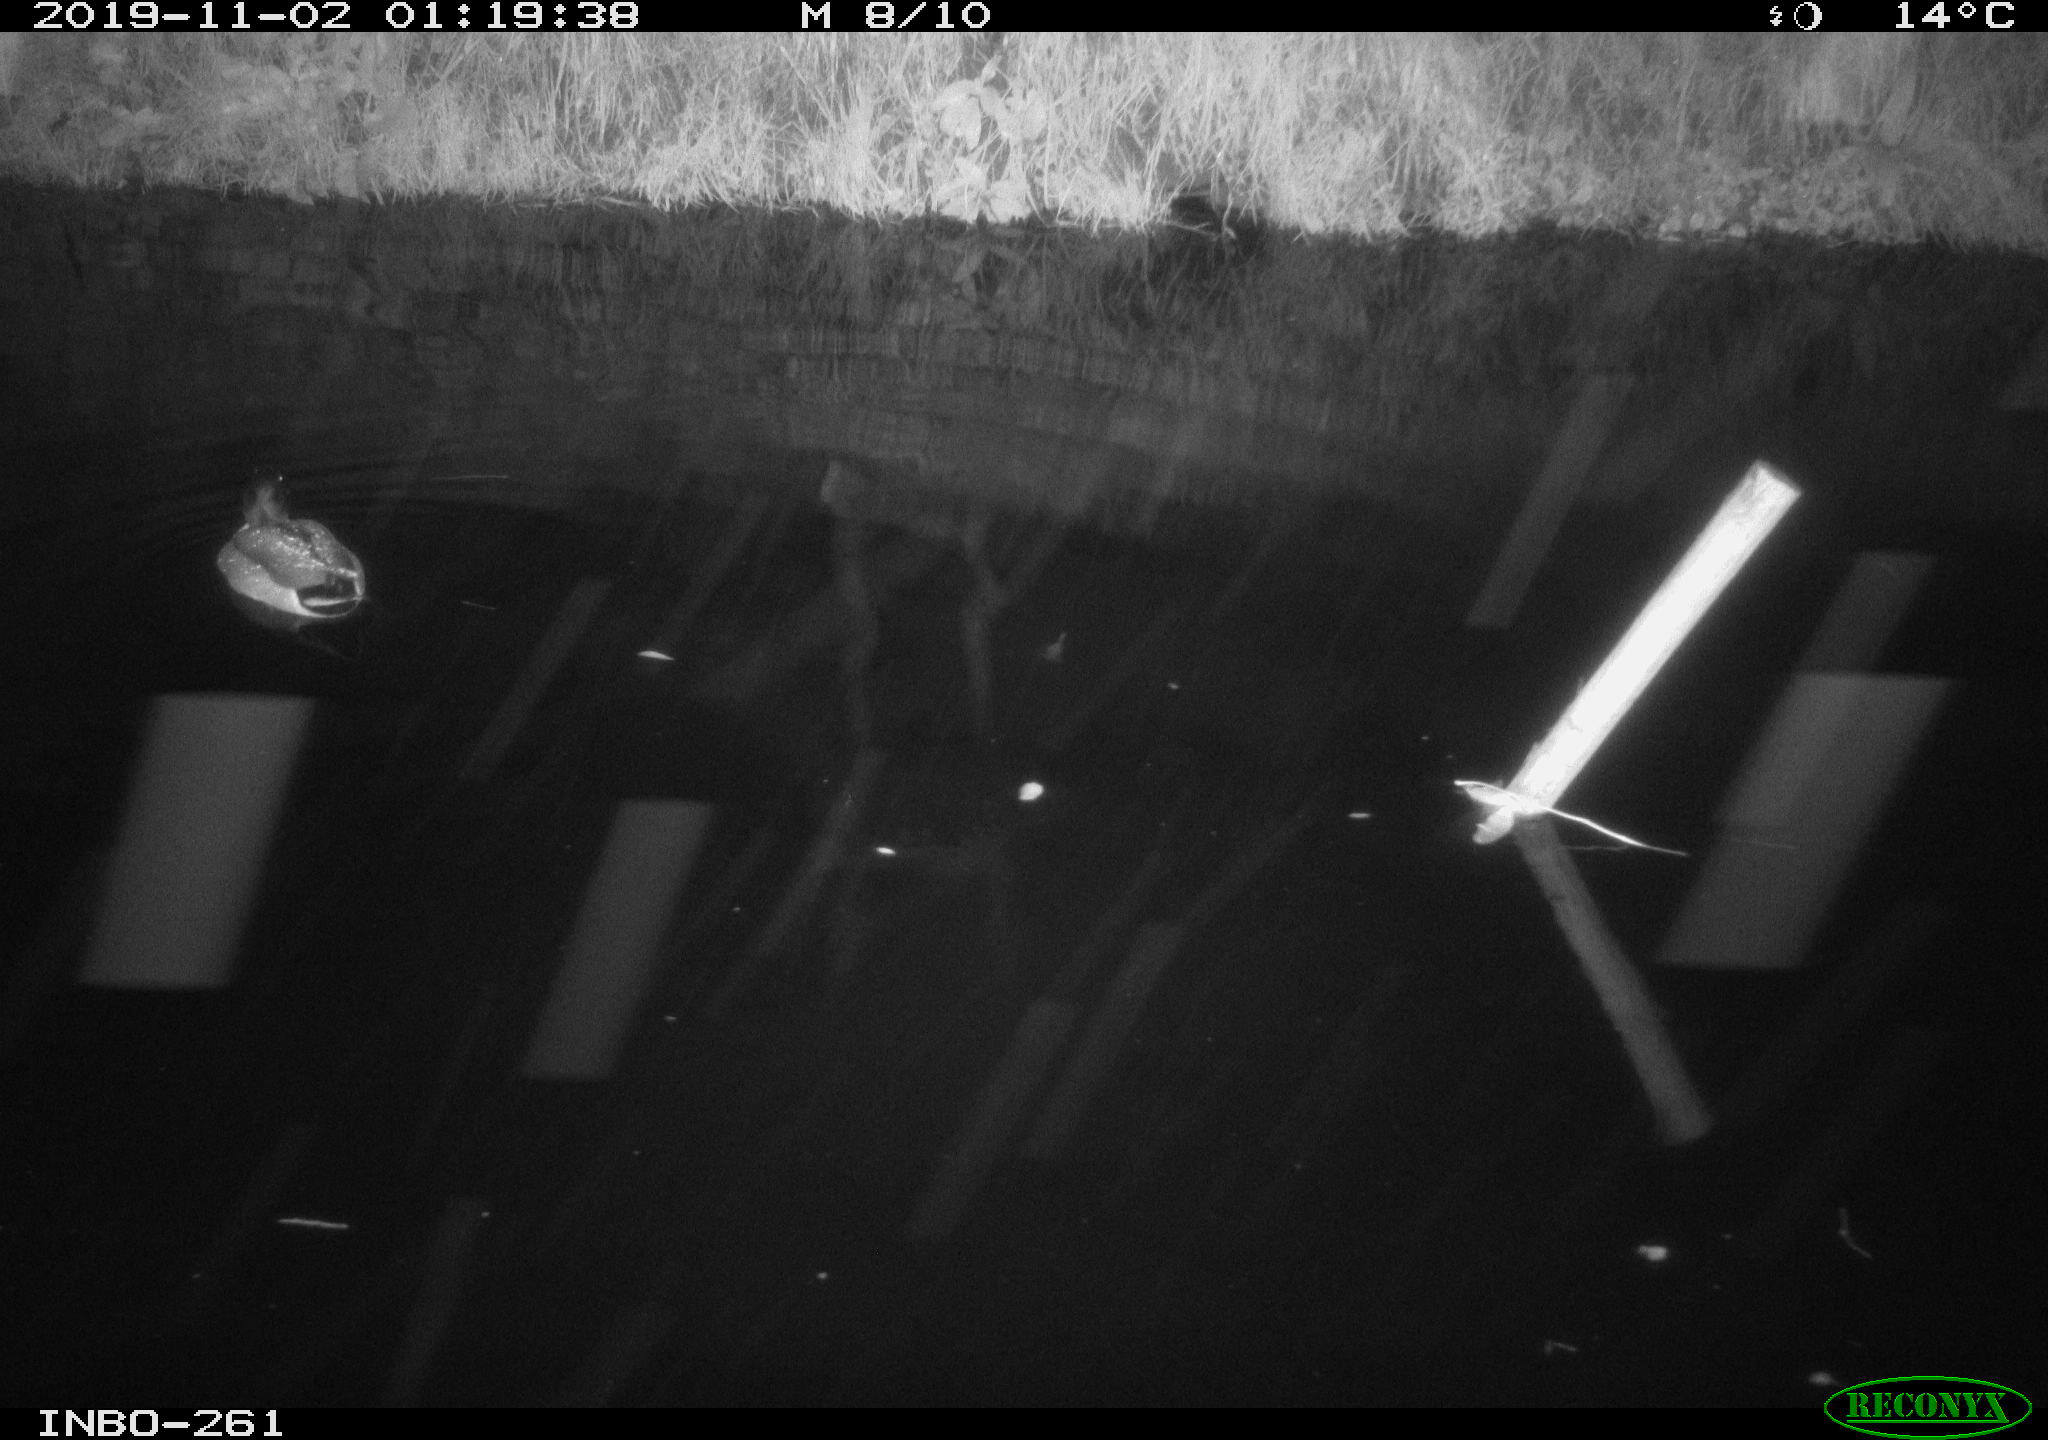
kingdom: Animalia
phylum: Chordata
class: Aves
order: Anseriformes
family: Anatidae
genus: Anas
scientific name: Anas platyrhynchos
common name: Mallard
